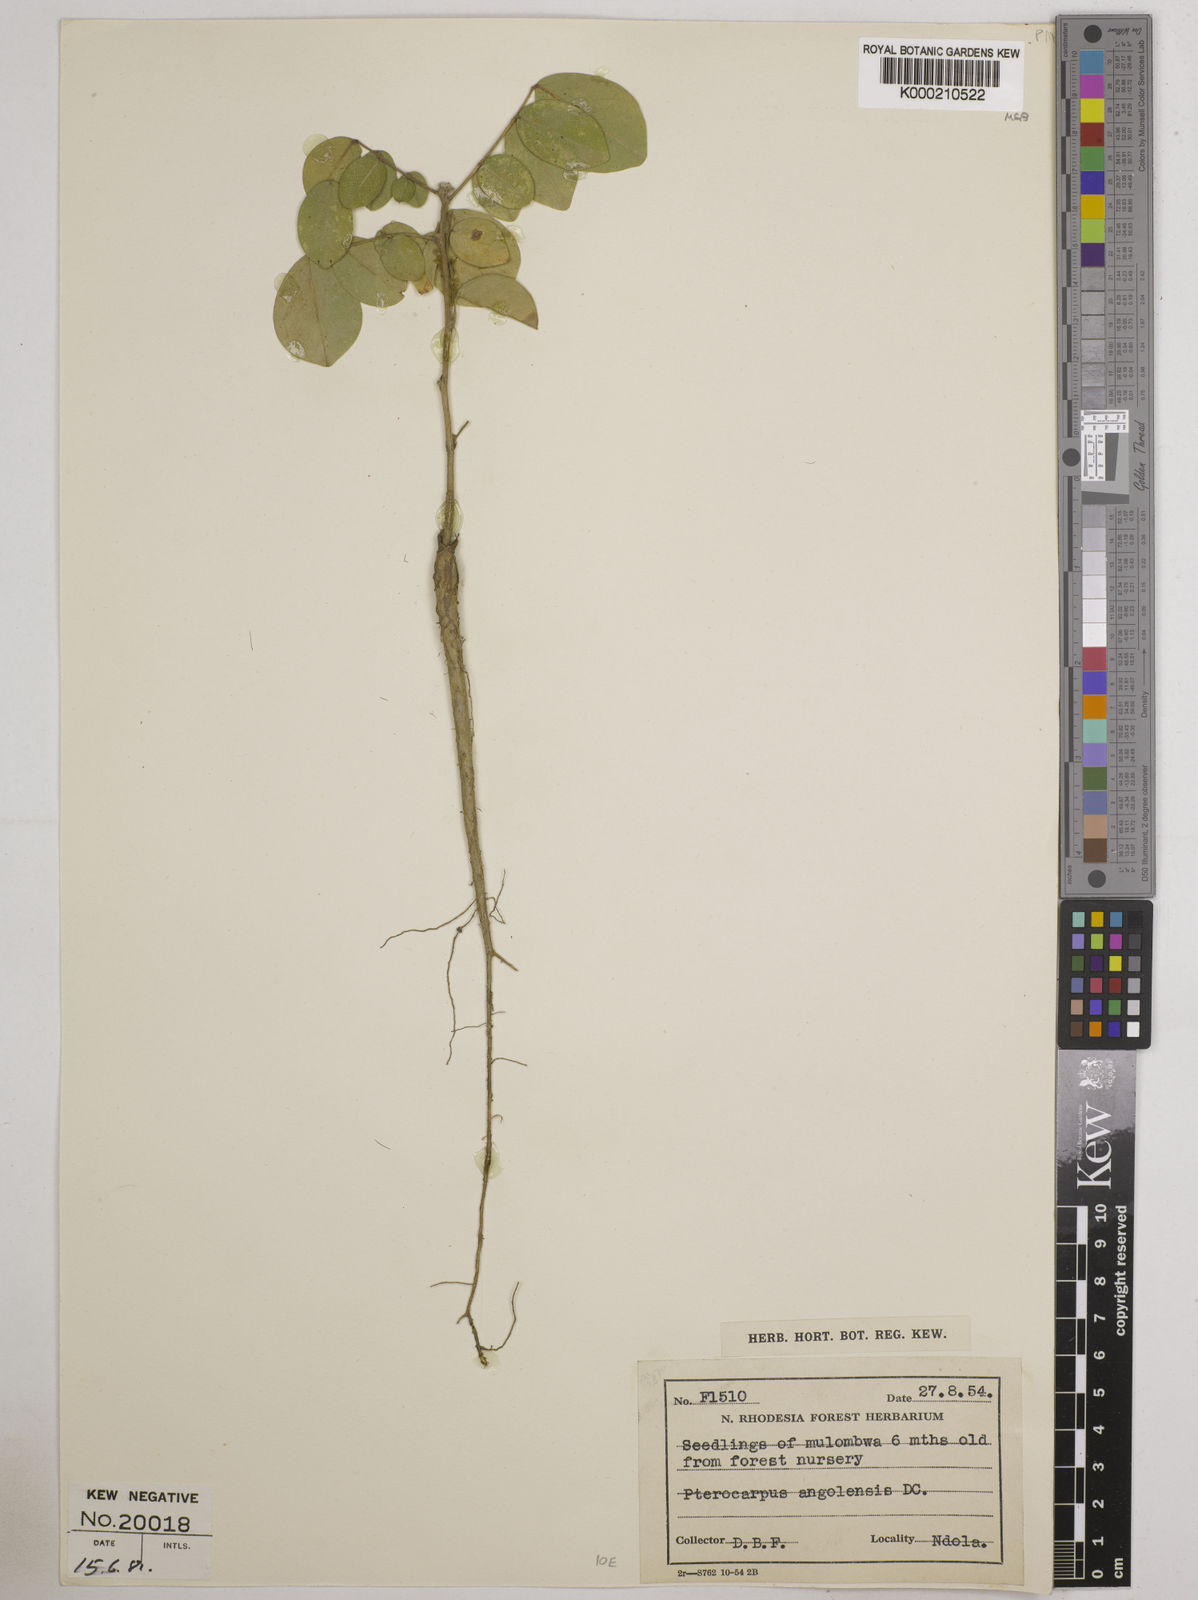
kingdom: Plantae
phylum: Tracheophyta
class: Magnoliopsida
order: Fabales
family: Fabaceae
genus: Pterocarpus
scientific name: Pterocarpus angolensis
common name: Bloodwood tree
